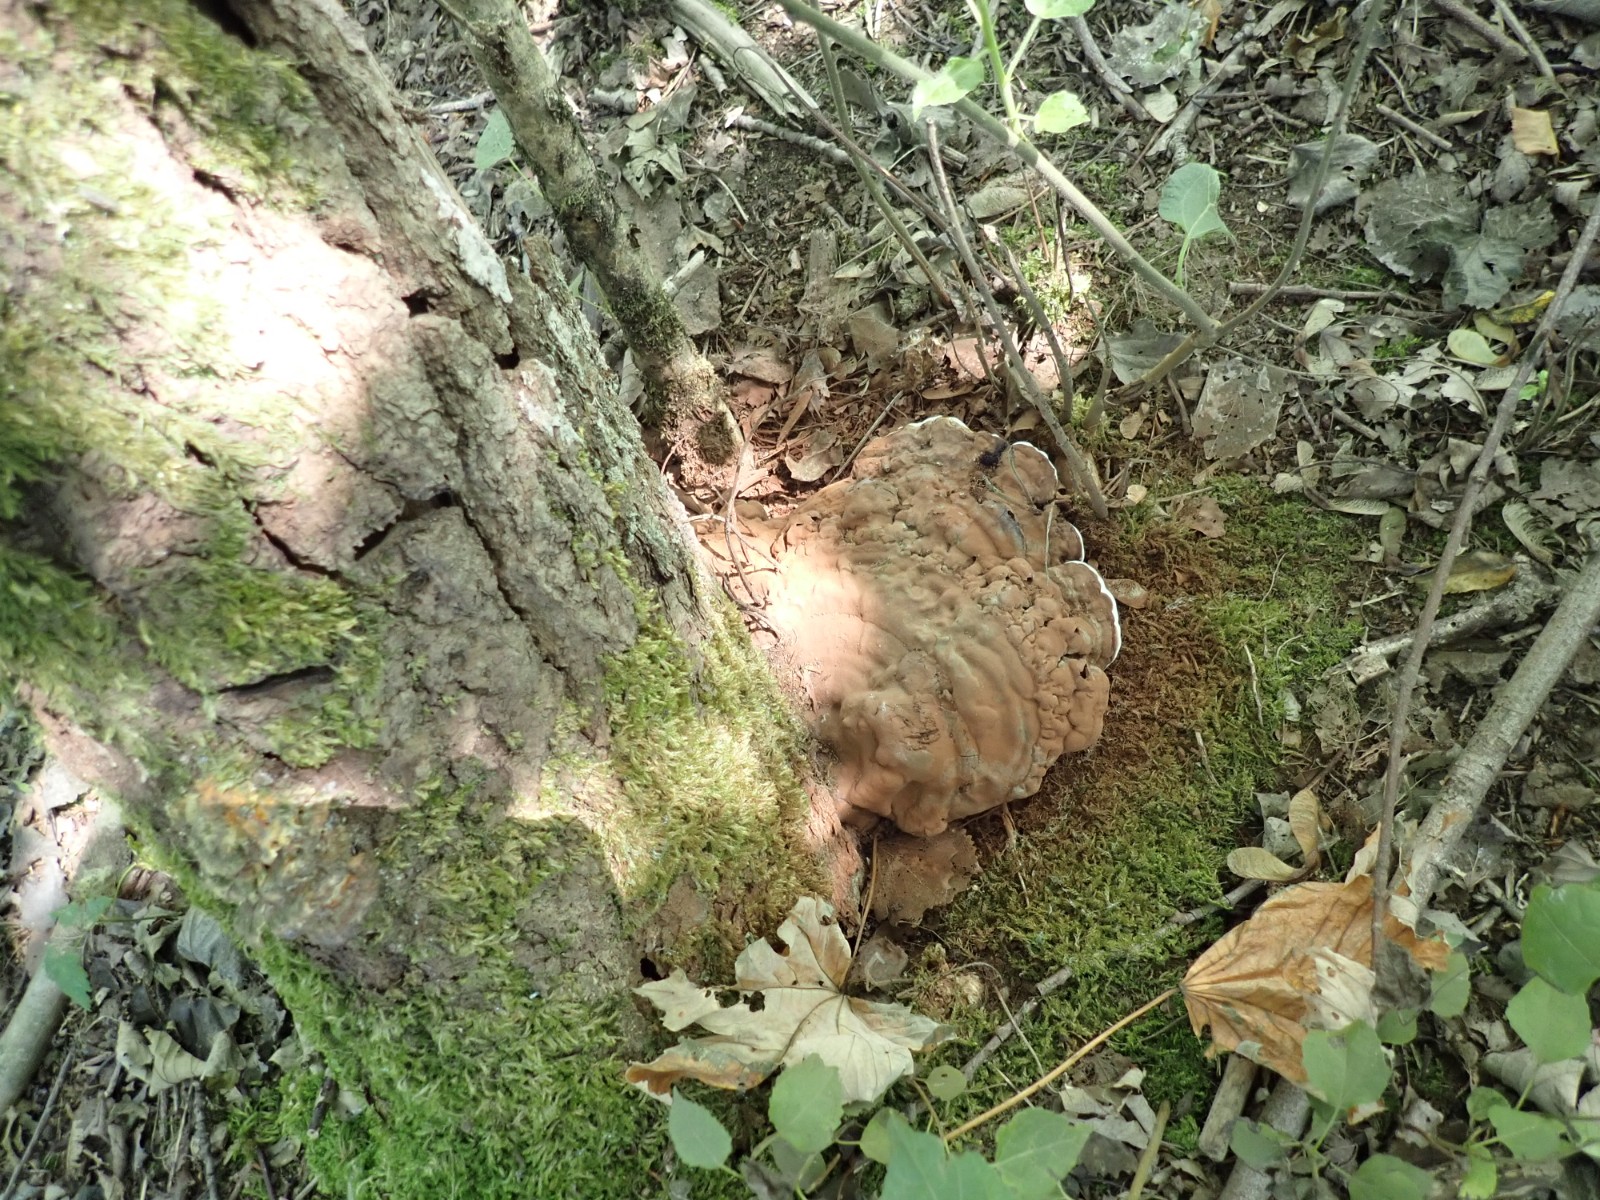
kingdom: Fungi
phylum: Basidiomycota
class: Agaricomycetes
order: Polyporales
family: Polyporaceae
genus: Ganoderma
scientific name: Ganoderma applanatum
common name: flad lakporesvamp
